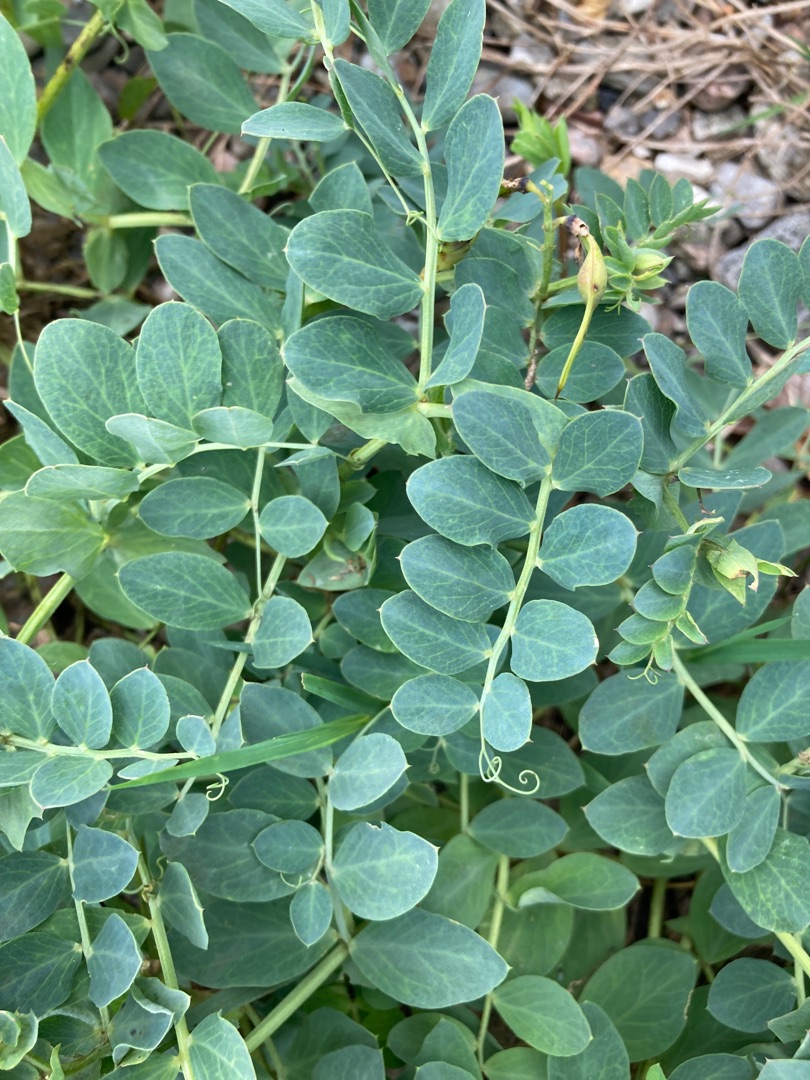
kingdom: Plantae
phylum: Tracheophyta
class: Magnoliopsida
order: Fabales
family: Fabaceae
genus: Lathyrus
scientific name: Lathyrus japonicus
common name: Strand-fladbælg
